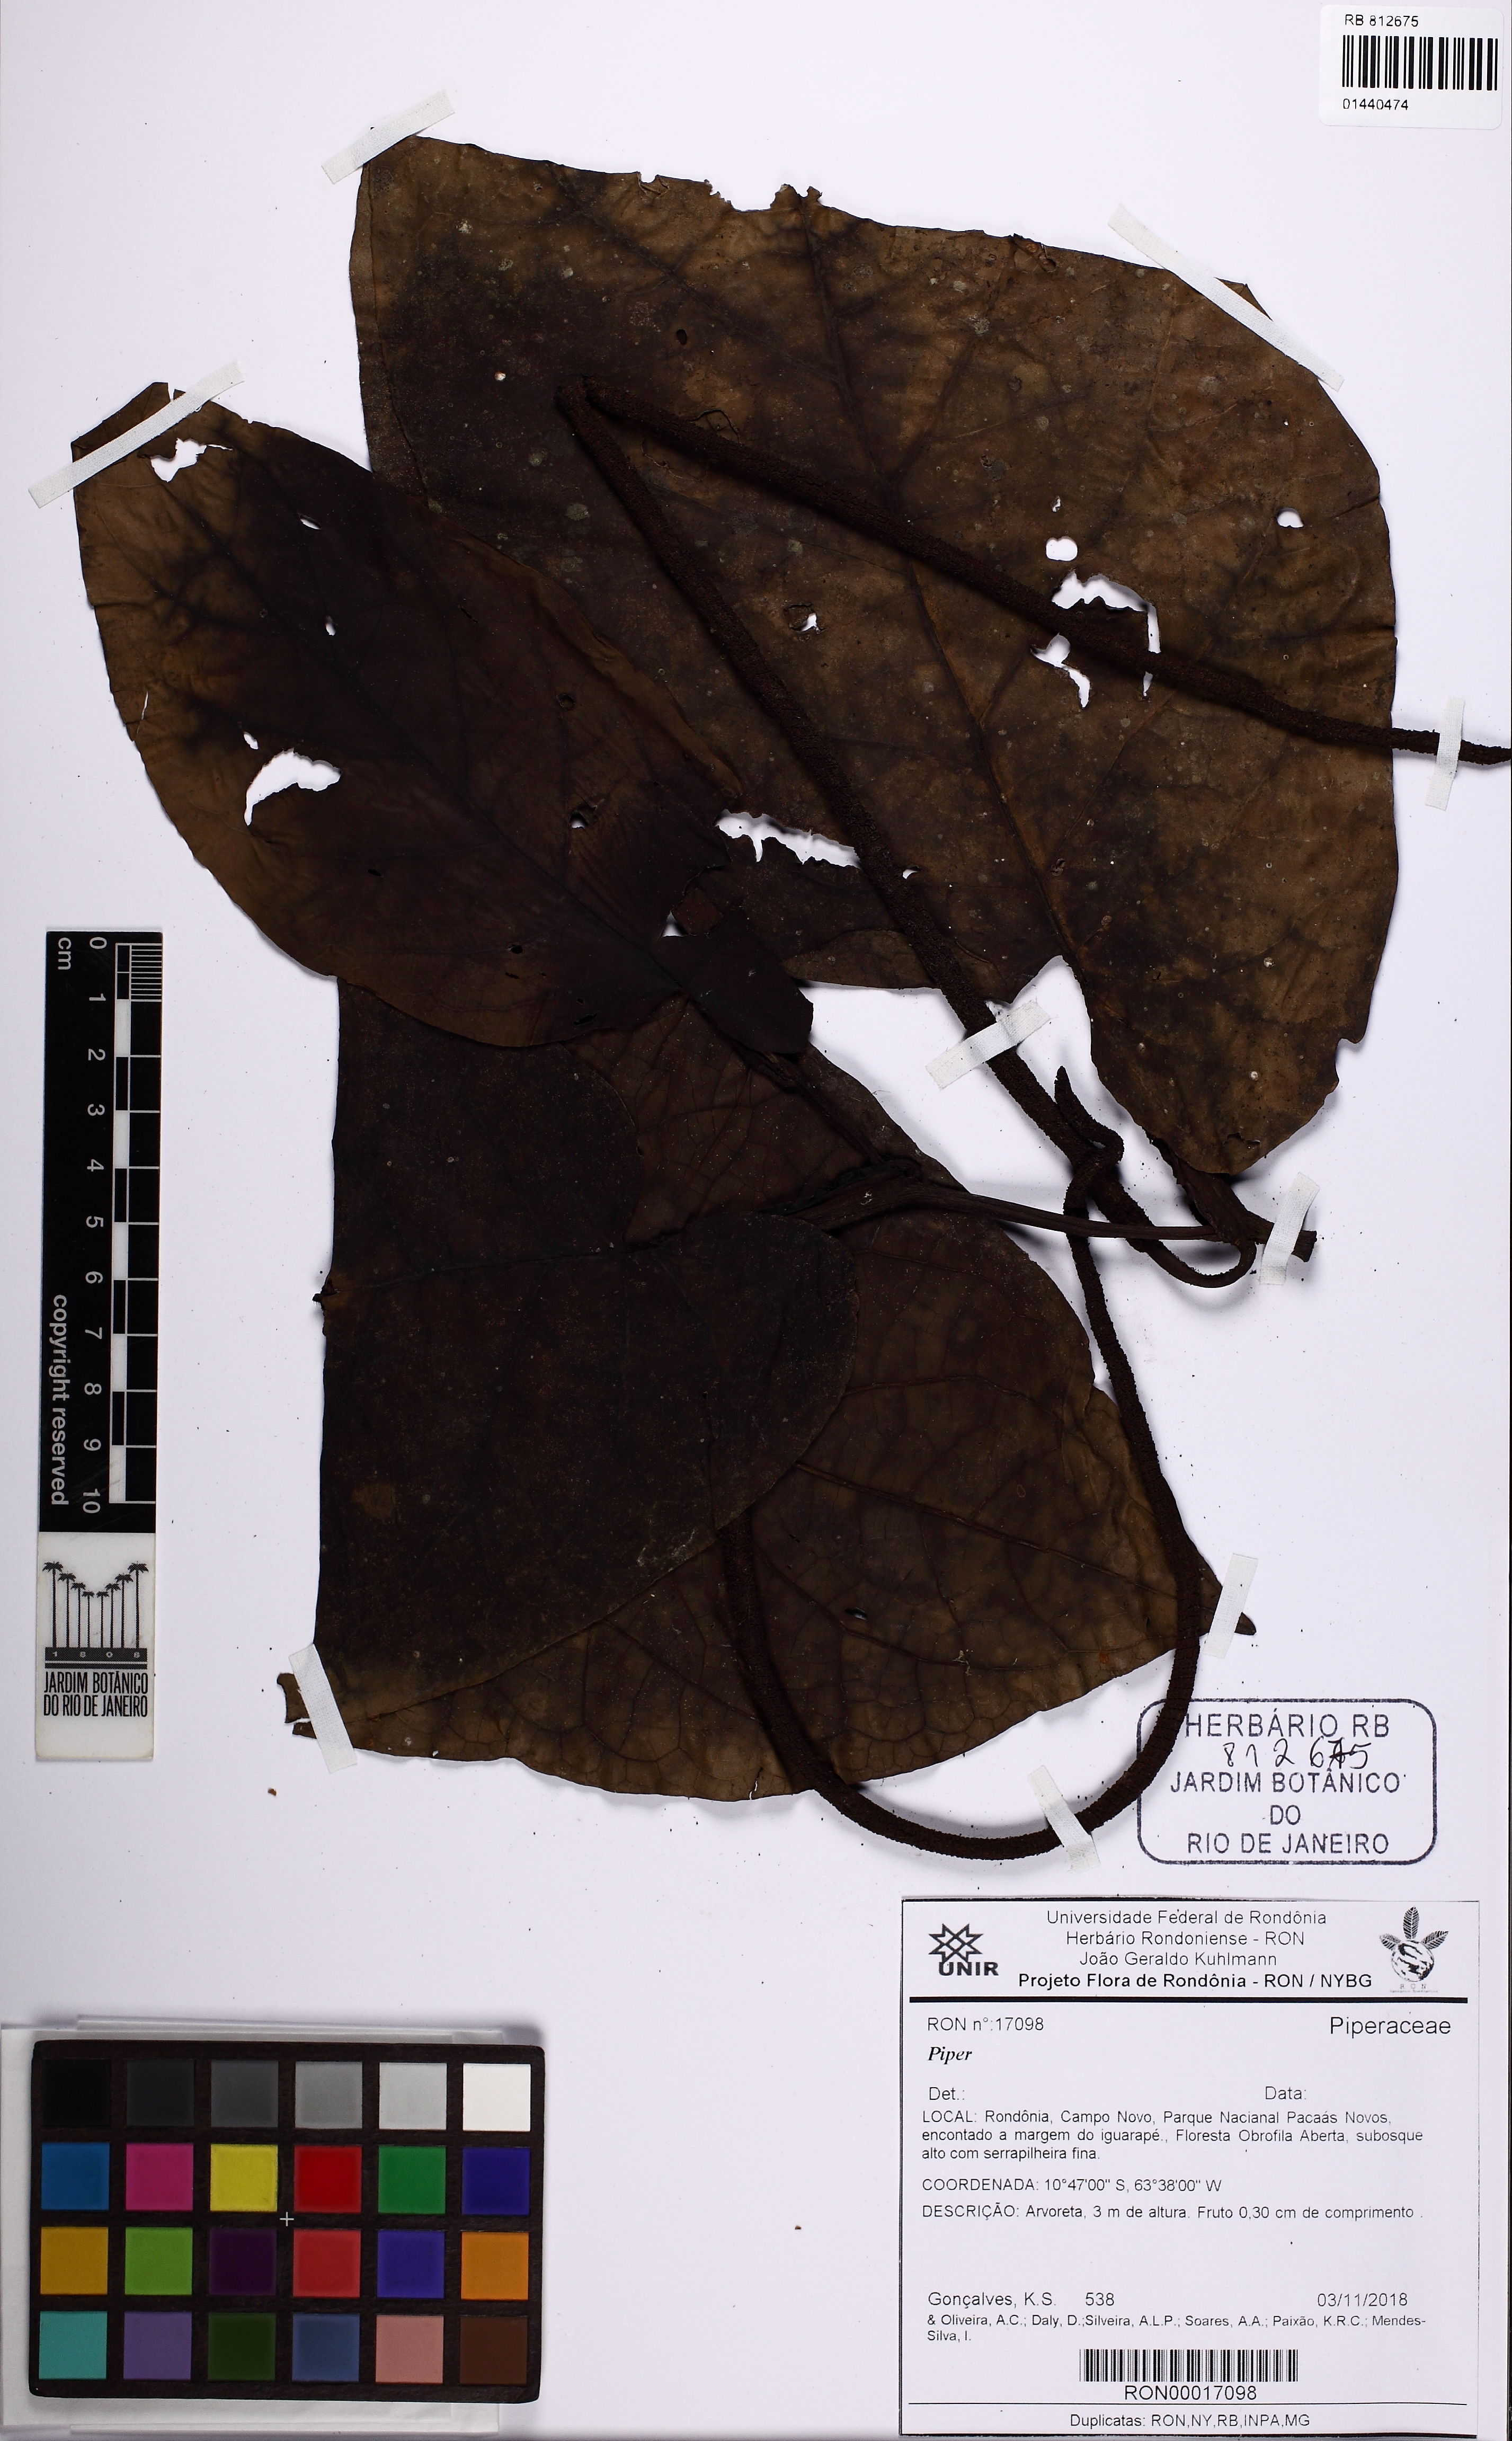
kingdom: Plantae
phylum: Tracheophyta
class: Magnoliopsida
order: Piperales
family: Piperaceae
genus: Piper
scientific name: Piper
